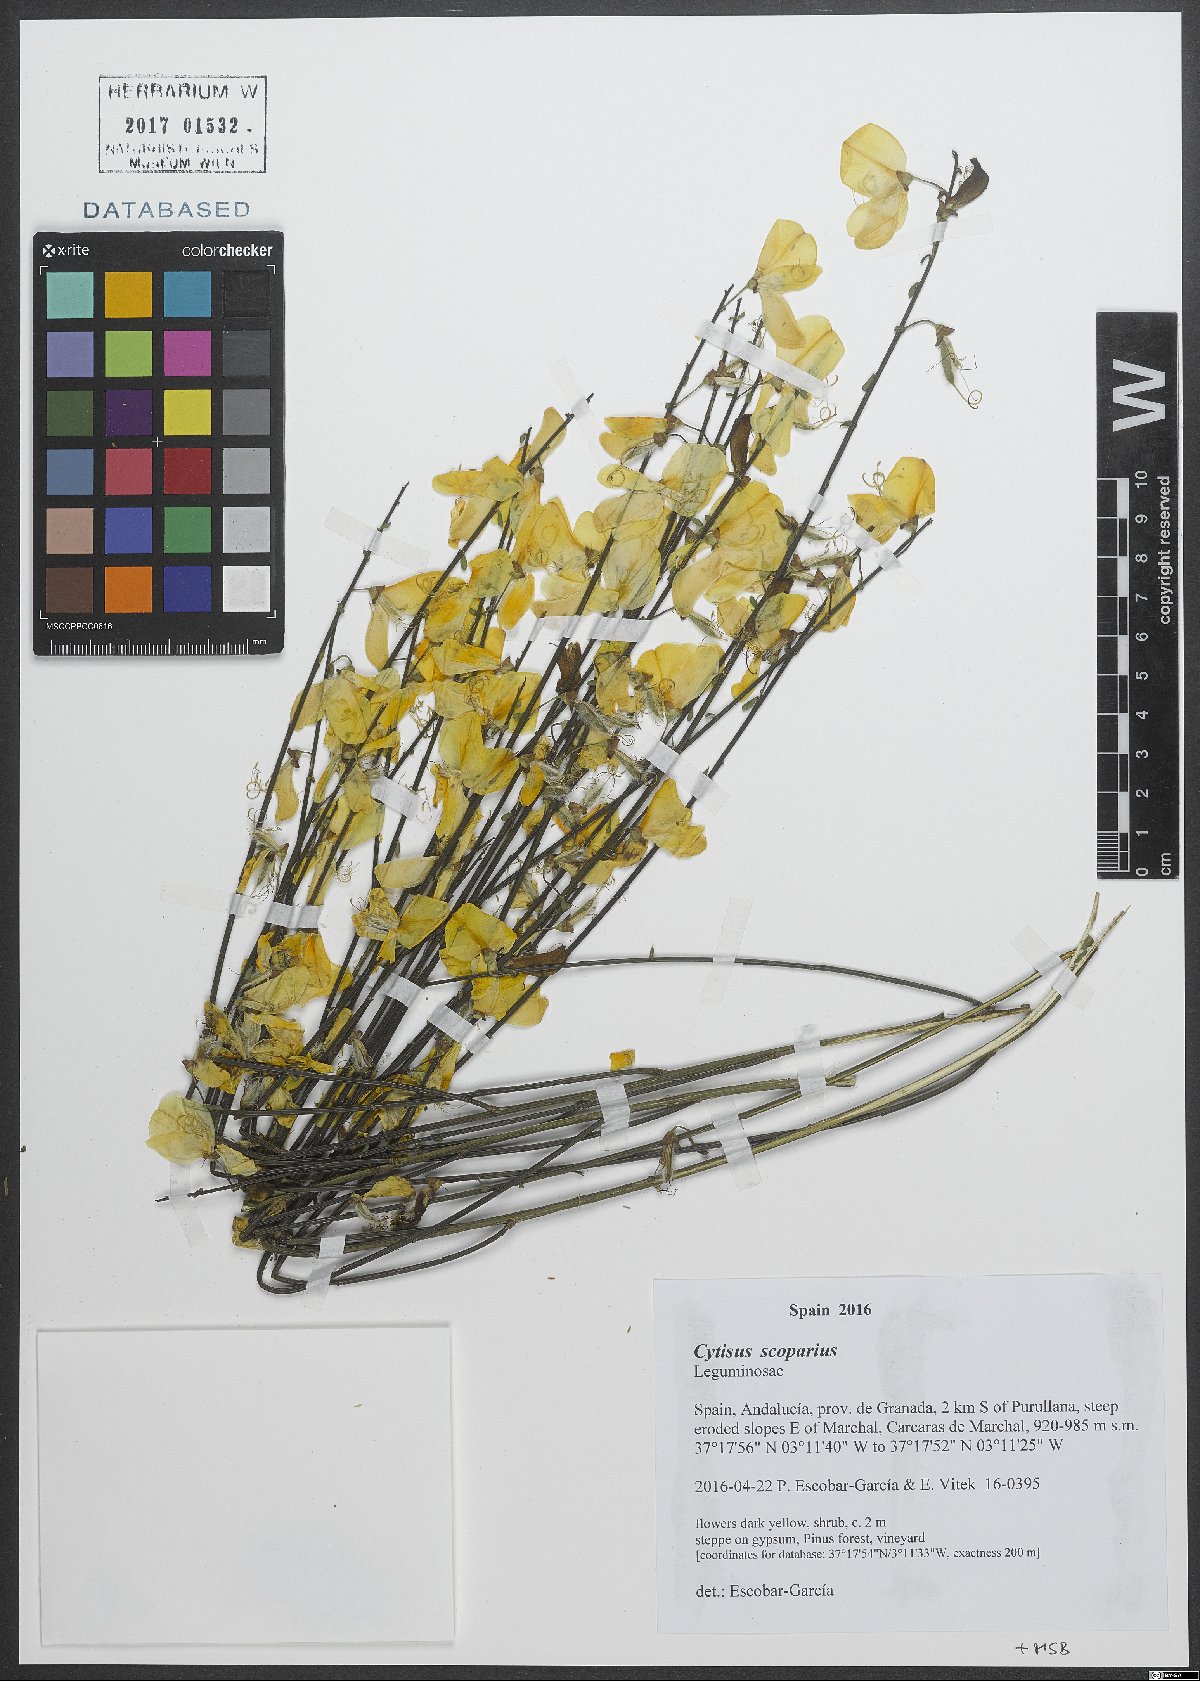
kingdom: Plantae
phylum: Tracheophyta
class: Magnoliopsida
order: Fabales
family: Fabaceae
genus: Cytisus
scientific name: Cytisus scoparius
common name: Scotch broom
